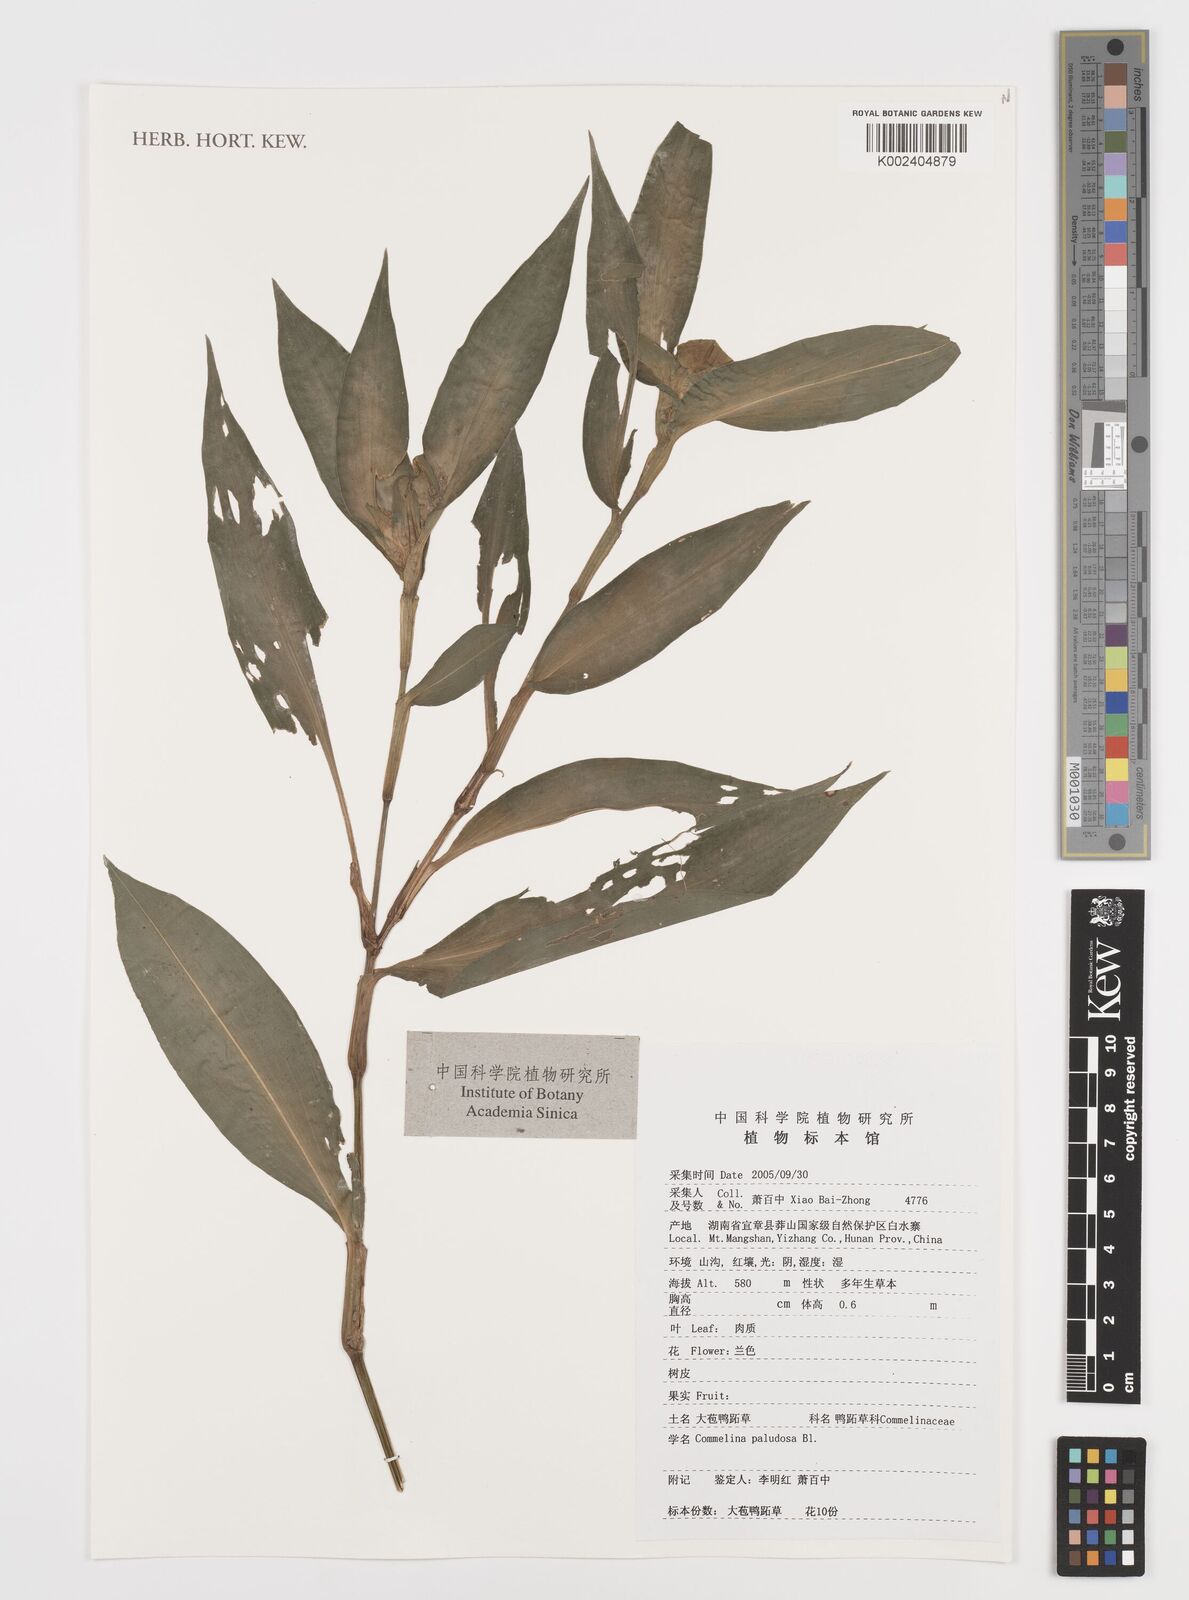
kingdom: Plantae
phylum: Tracheophyta
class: Liliopsida
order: Commelinales
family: Commelinaceae
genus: Commelina
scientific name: Commelina paludosa
